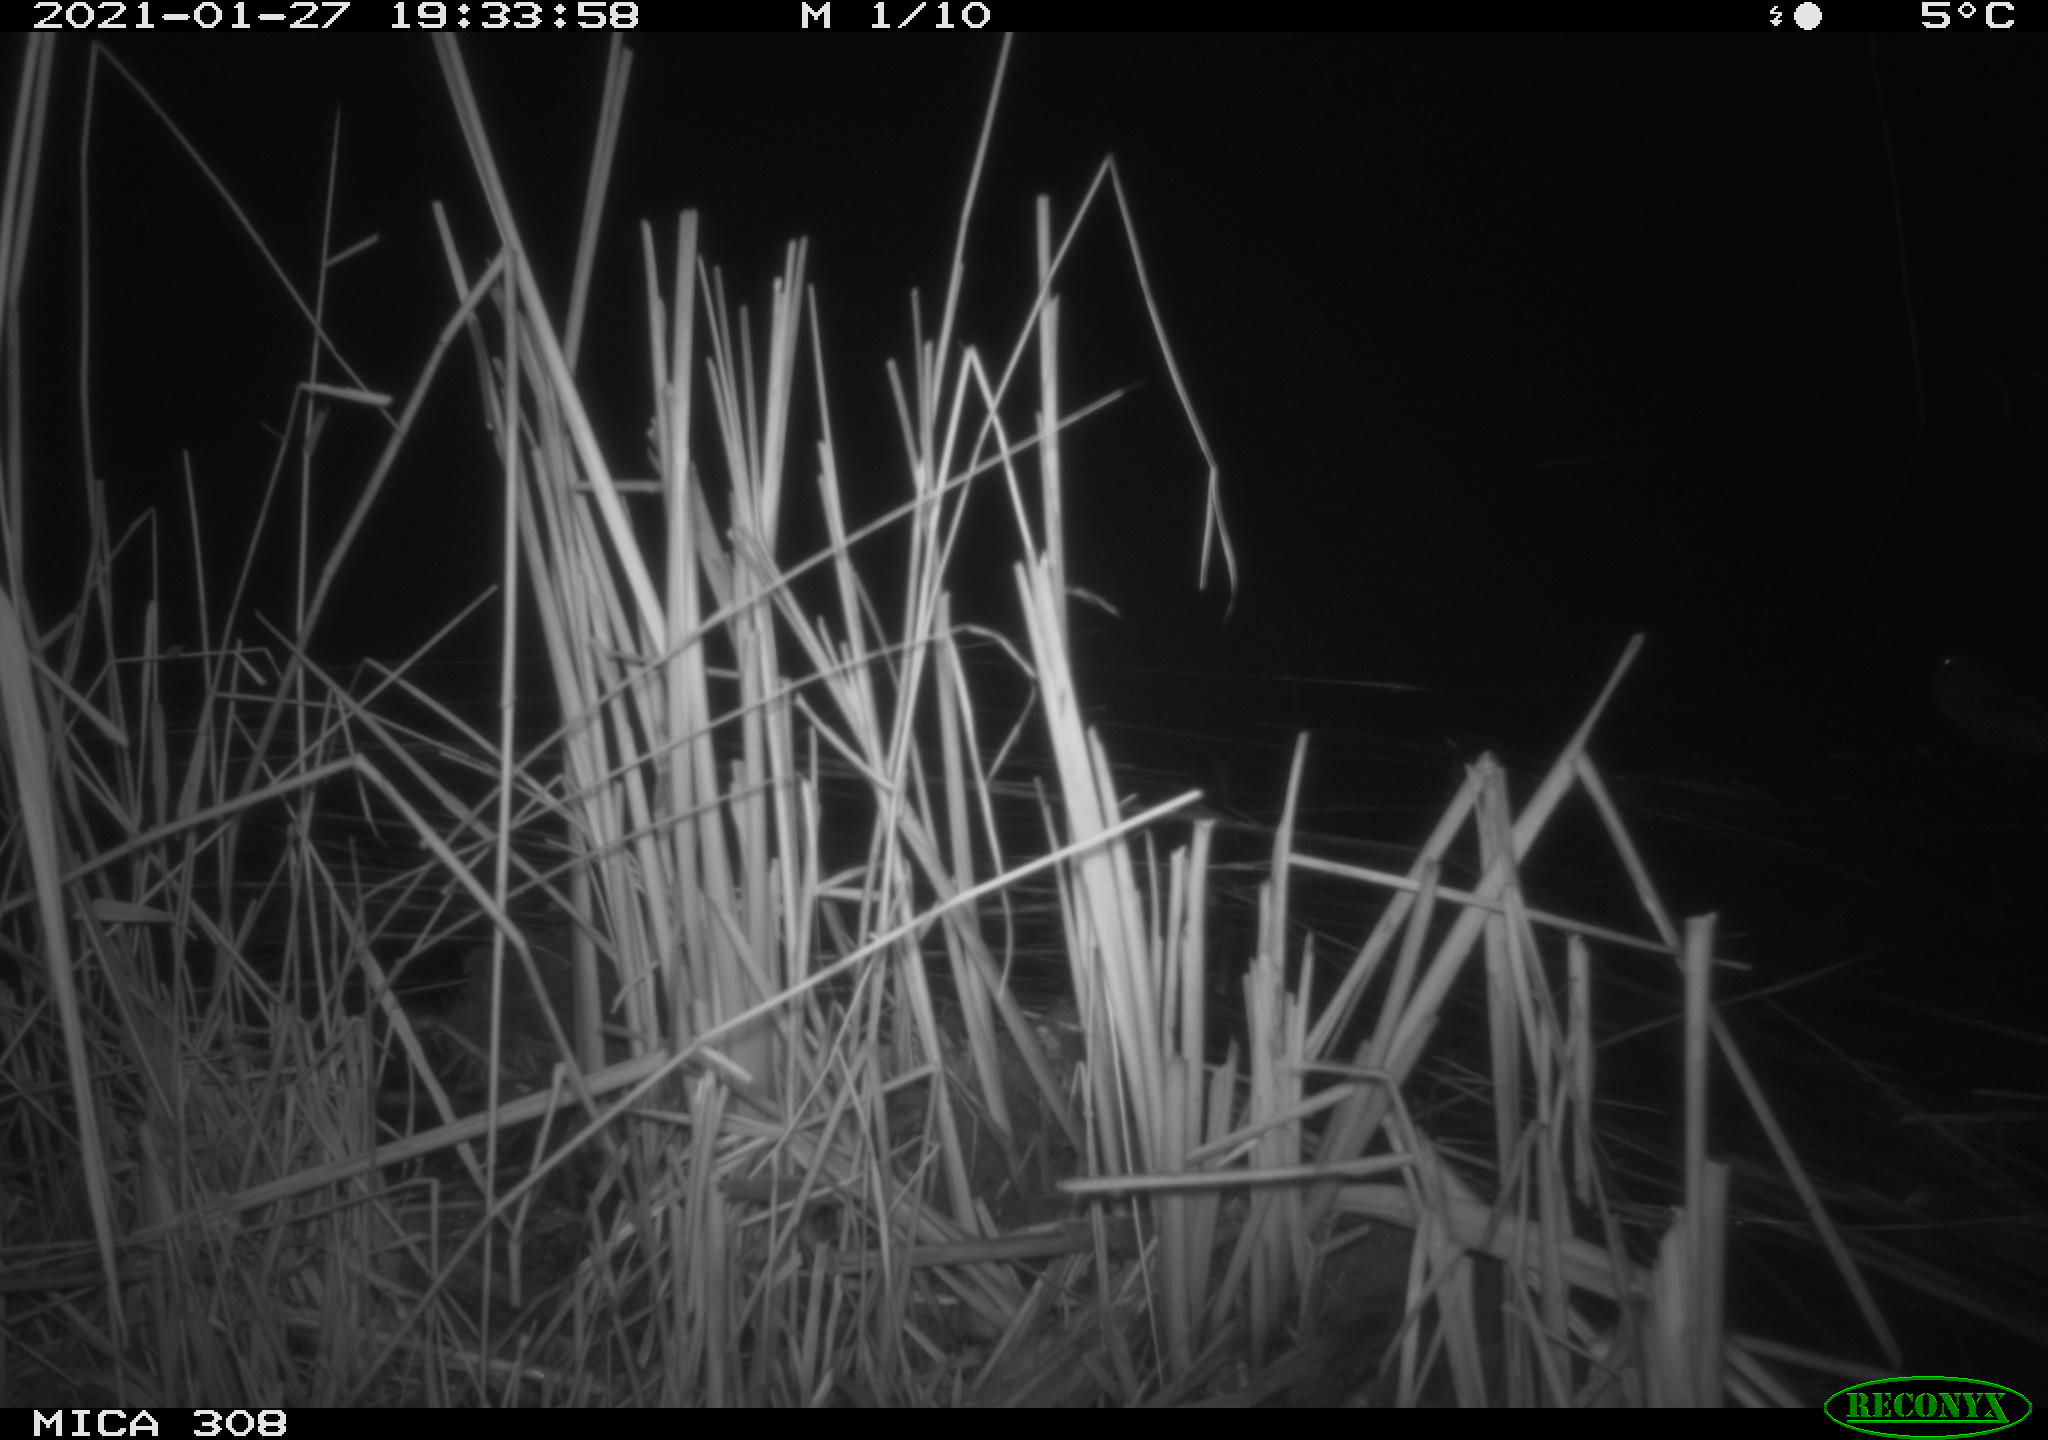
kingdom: Animalia
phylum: Chordata
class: Mammalia
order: Rodentia
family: Cricetidae
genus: Ondatra
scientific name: Ondatra zibethicus
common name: Muskrat
